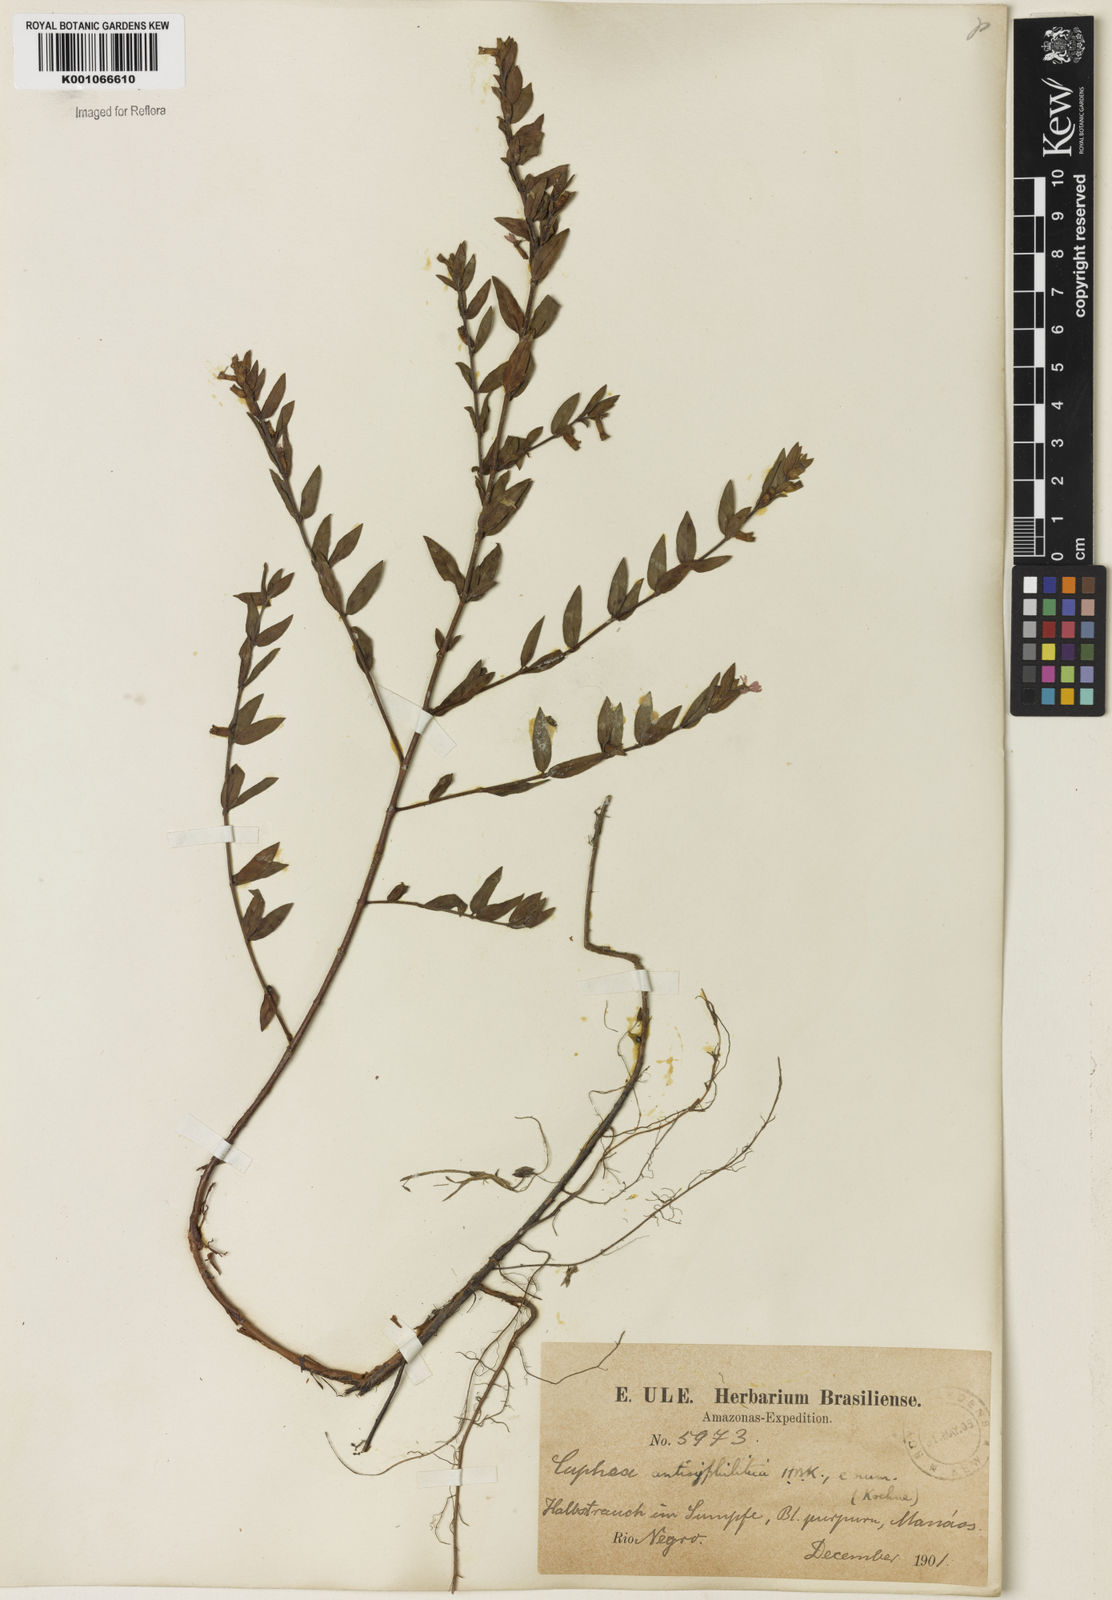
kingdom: Plantae
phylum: Tracheophyta
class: Magnoliopsida
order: Myrtales
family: Lythraceae
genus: Cuphea
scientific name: Cuphea antisyphilitica
